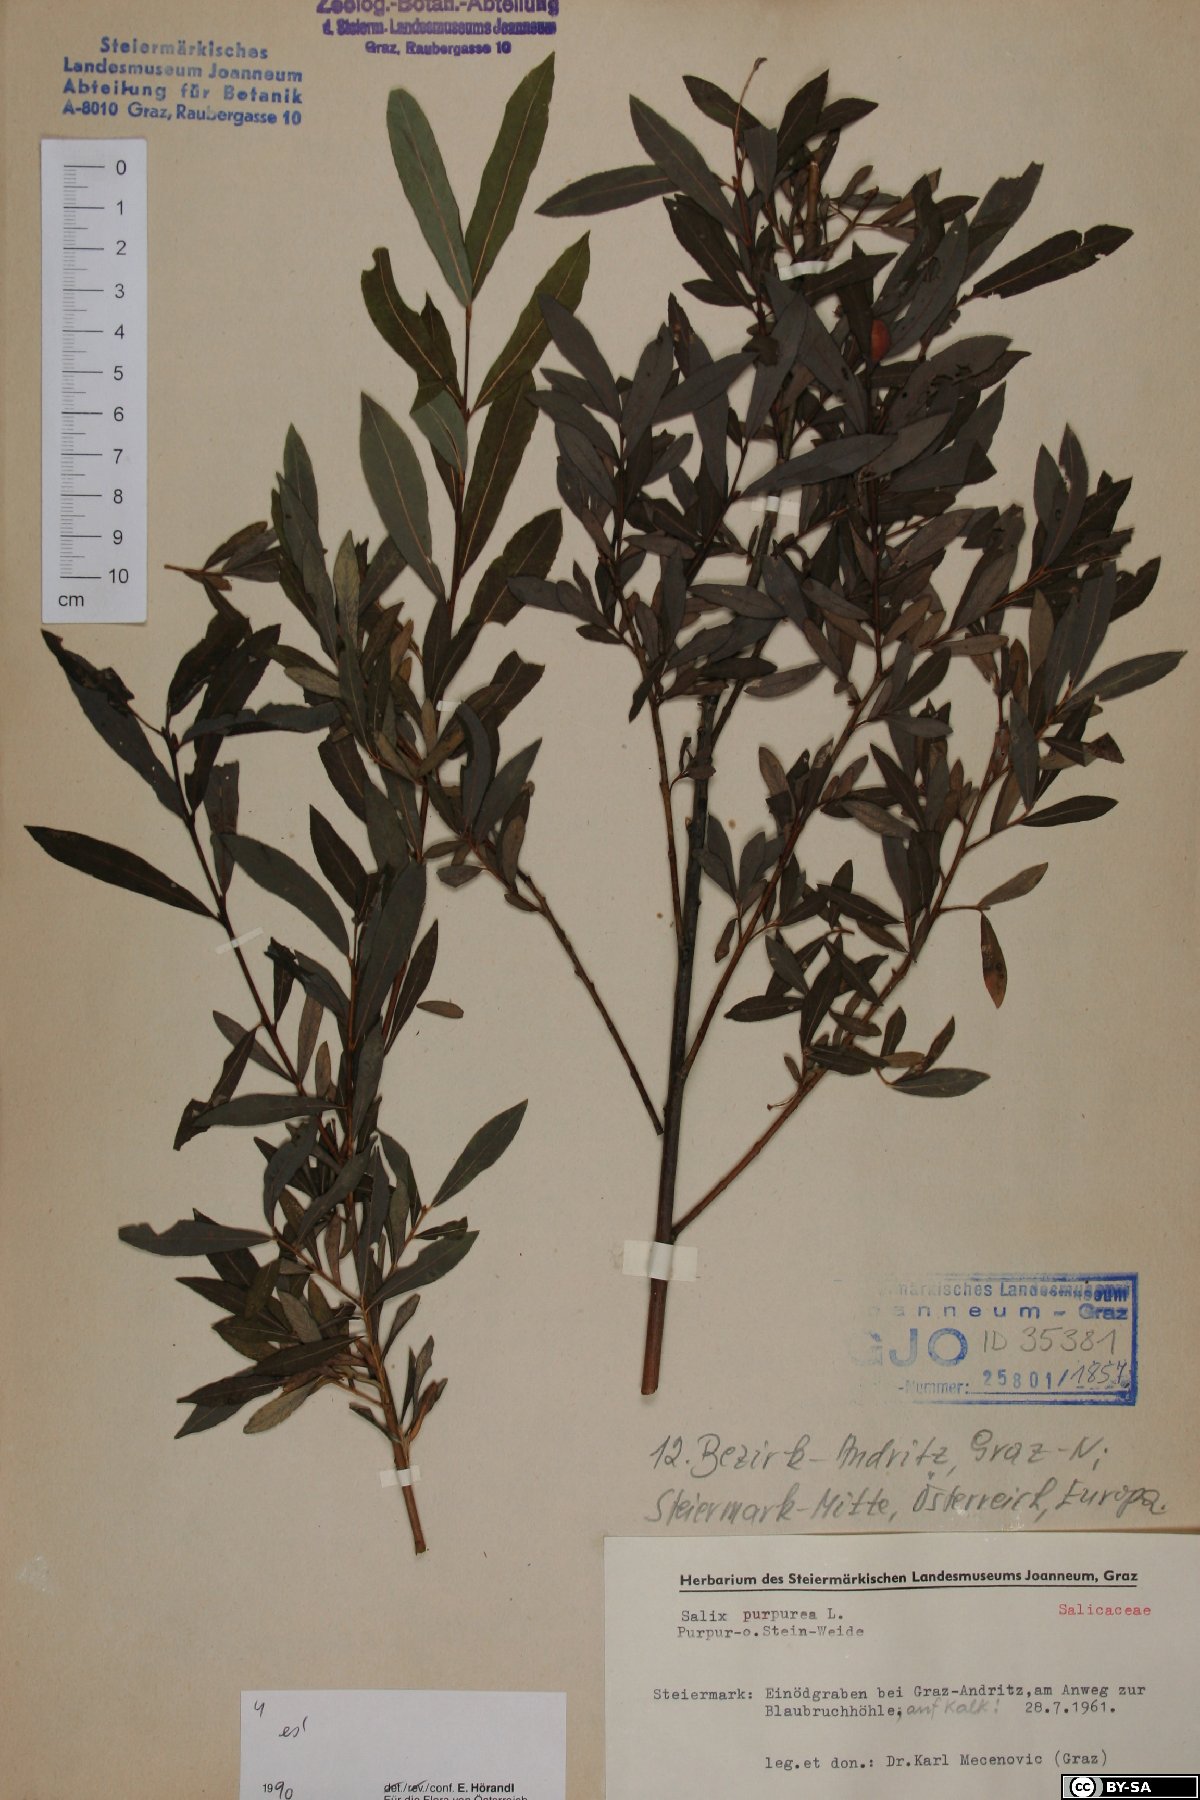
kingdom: Plantae
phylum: Tracheophyta
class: Magnoliopsida
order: Malpighiales
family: Salicaceae
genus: Salix
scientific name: Salix purpurea
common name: Purple willow
